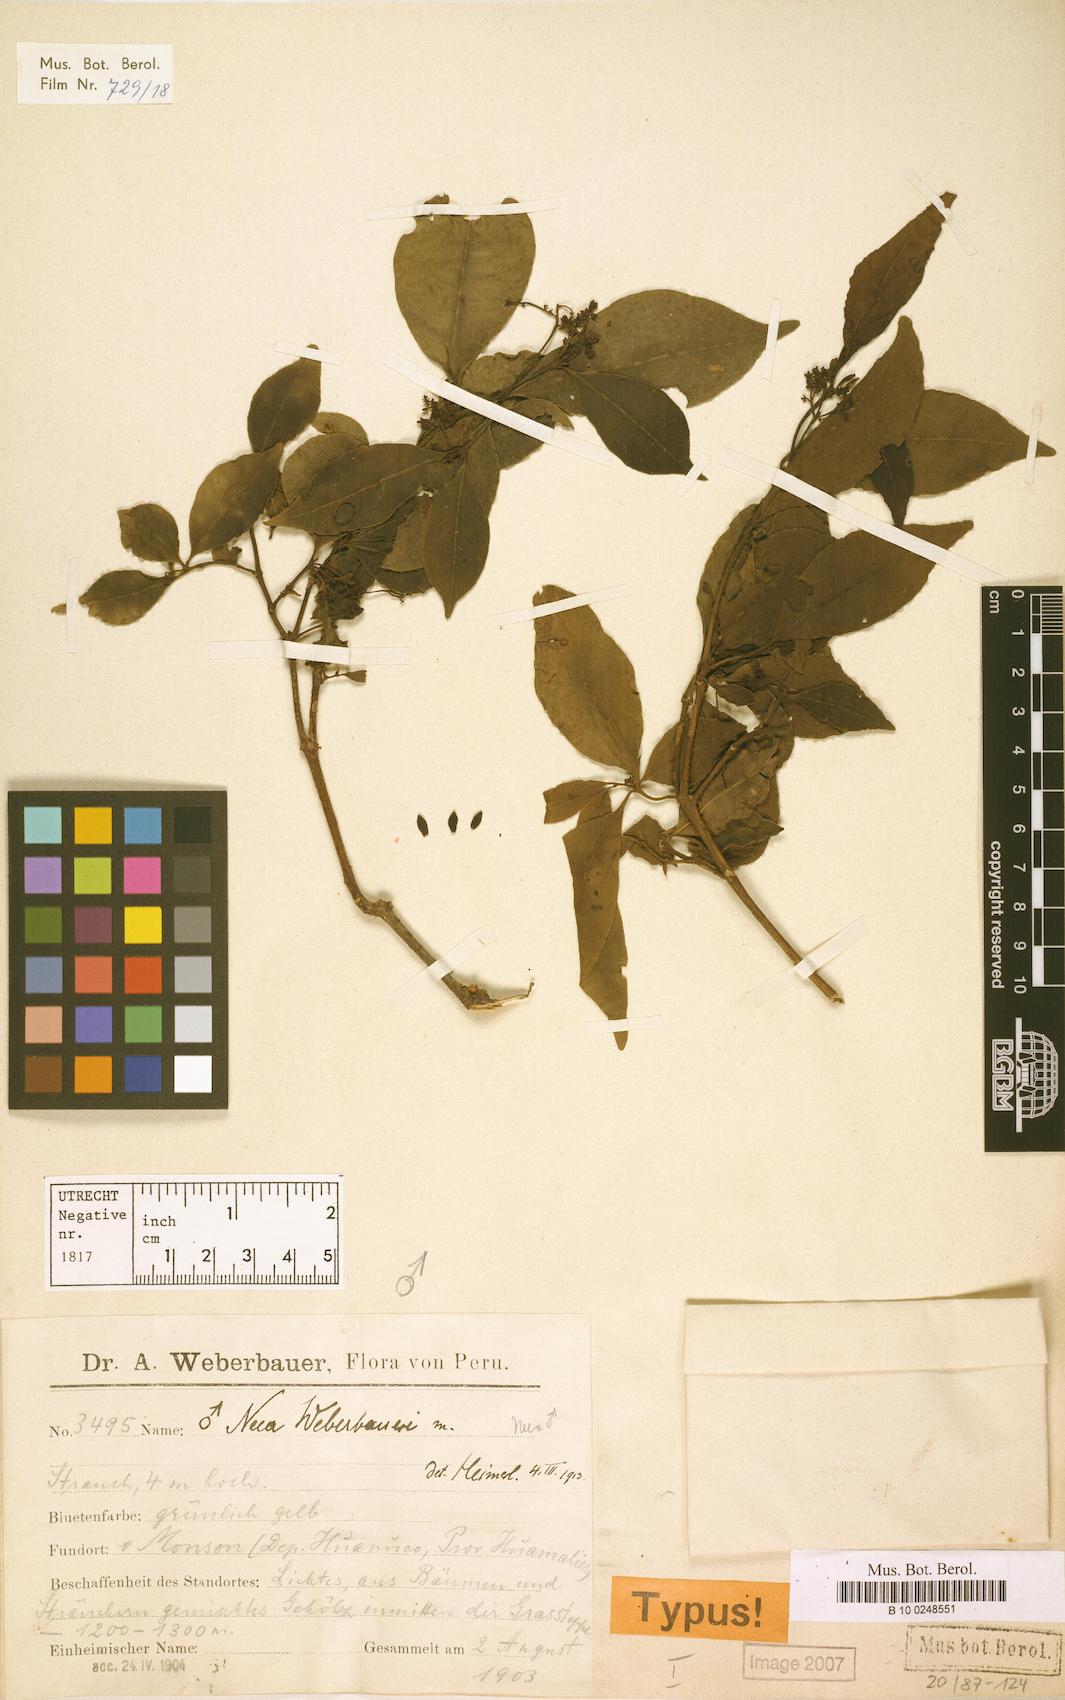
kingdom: Plantae
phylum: Tracheophyta
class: Magnoliopsida
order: Caryophyllales
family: Nyctaginaceae
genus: Neea
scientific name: Neea spruceana
